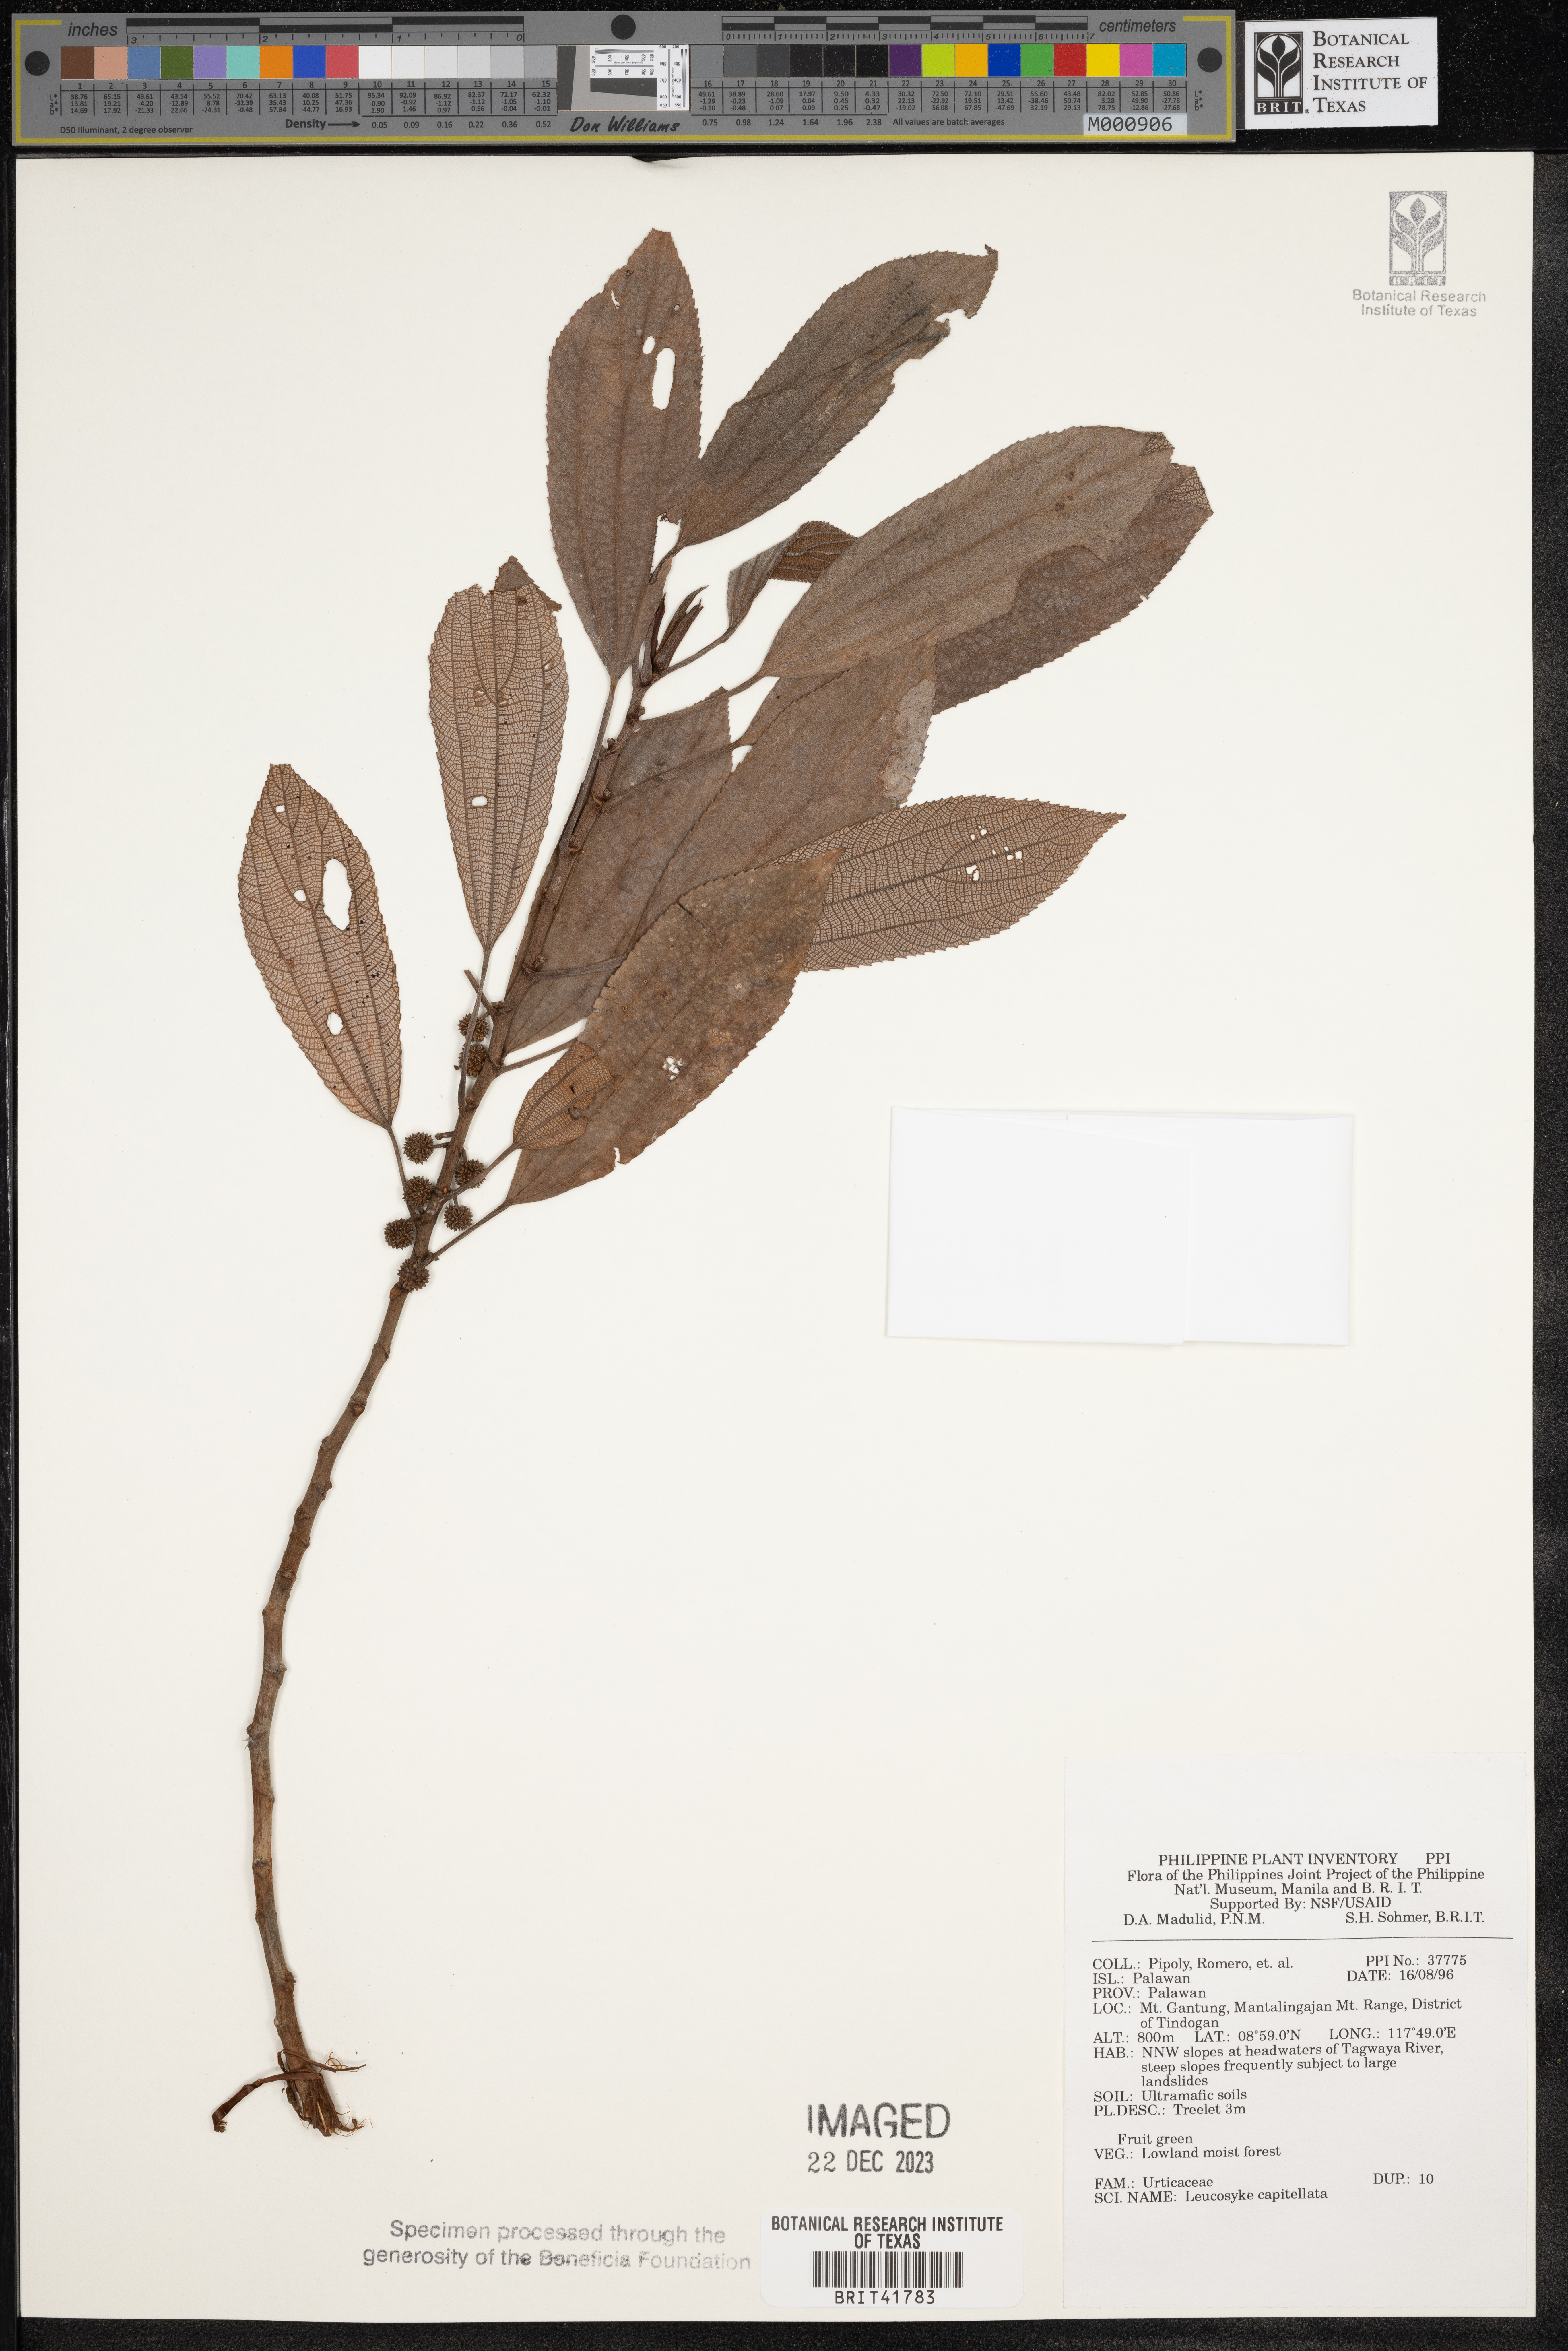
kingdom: Plantae
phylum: Tracheophyta
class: Magnoliopsida
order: Rosales
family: Urticaceae
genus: Leucosyke
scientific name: Leucosyke capitellata
